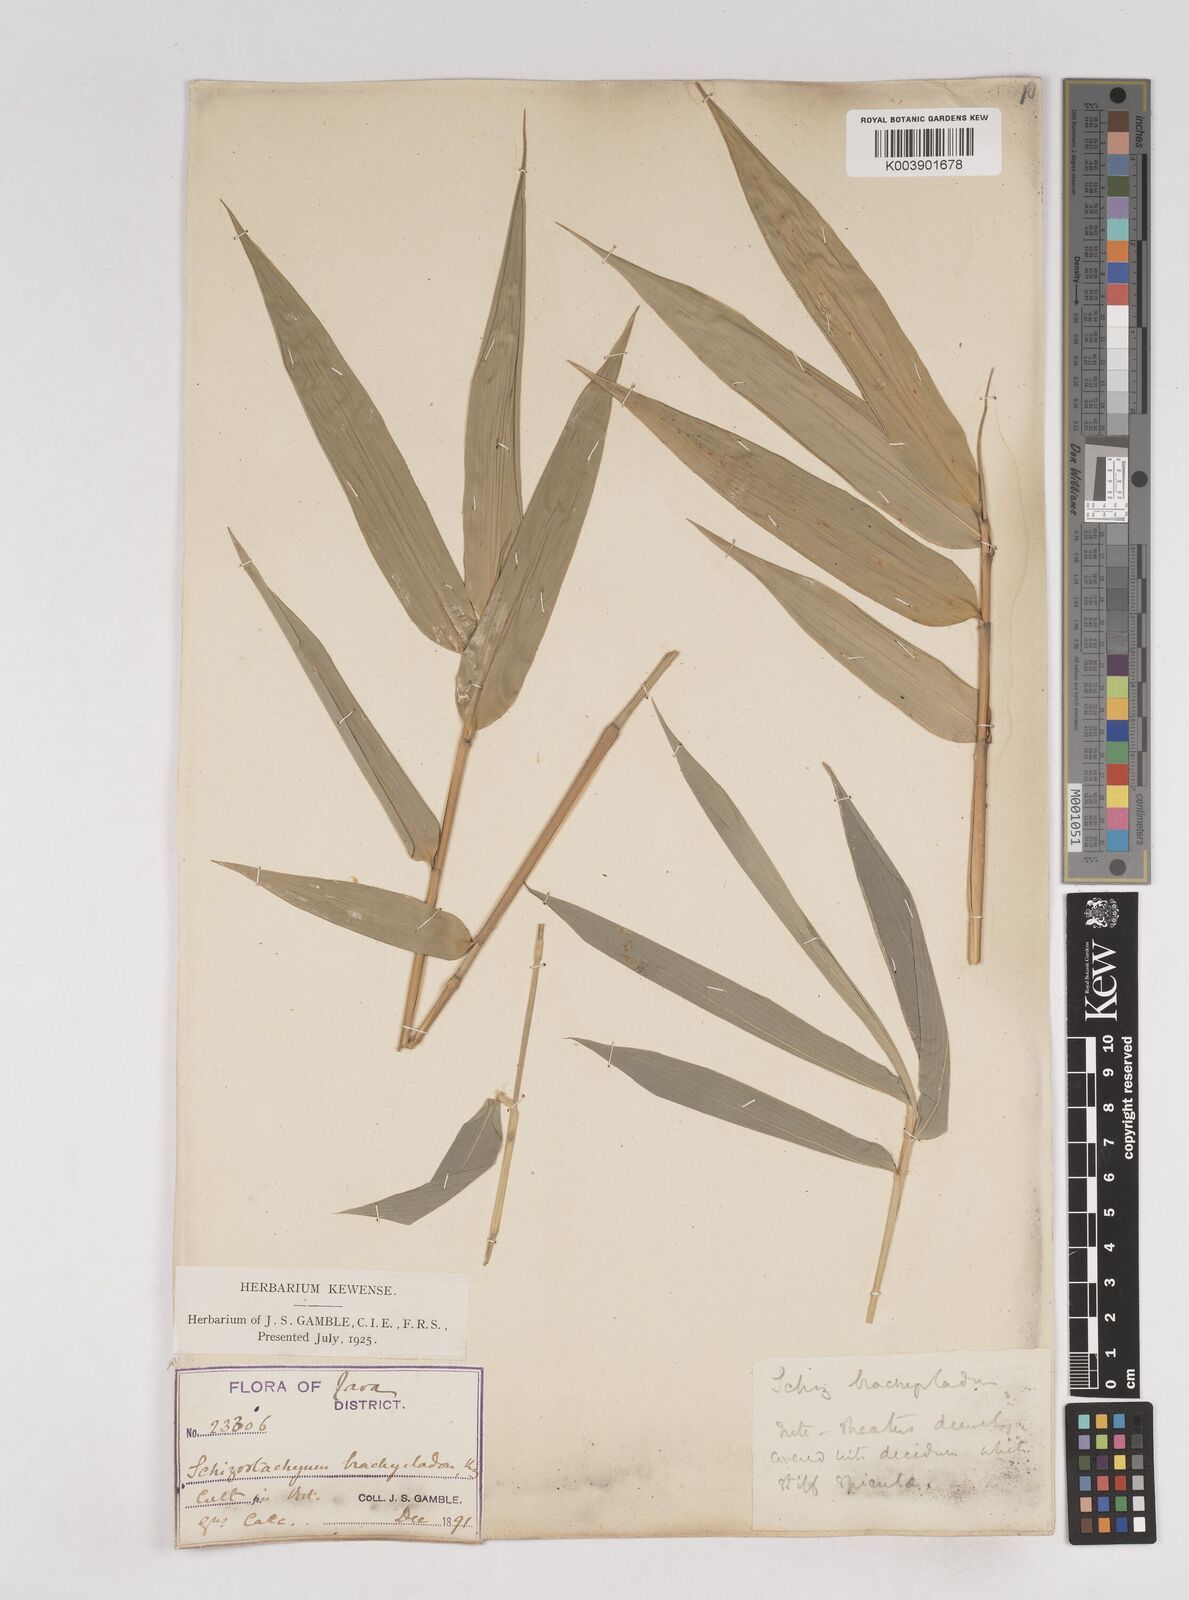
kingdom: Plantae
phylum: Tracheophyta
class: Liliopsida
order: Poales
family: Poaceae
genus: Schizostachyum
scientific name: Schizostachyum brachycladum
